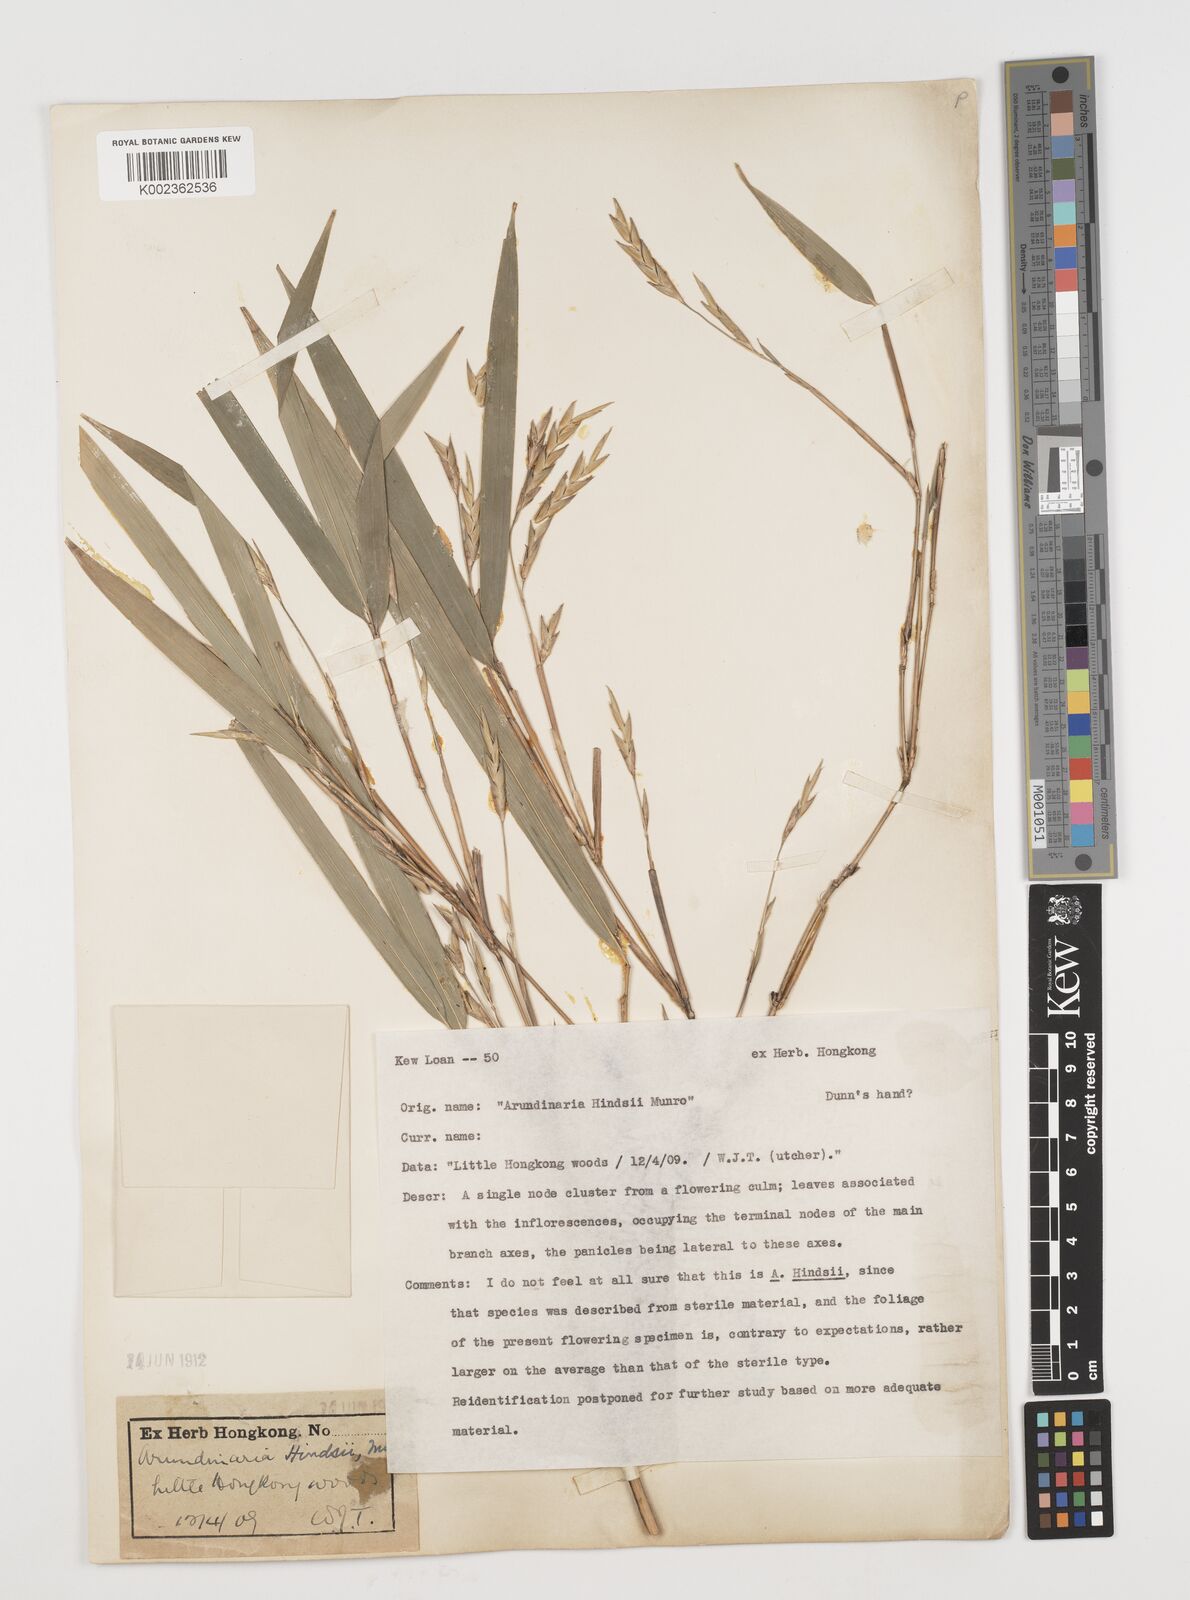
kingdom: Plantae
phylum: Tracheophyta
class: Liliopsida
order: Poales
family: Poaceae
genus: Pseudosasa
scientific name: Pseudosasa hindsii
